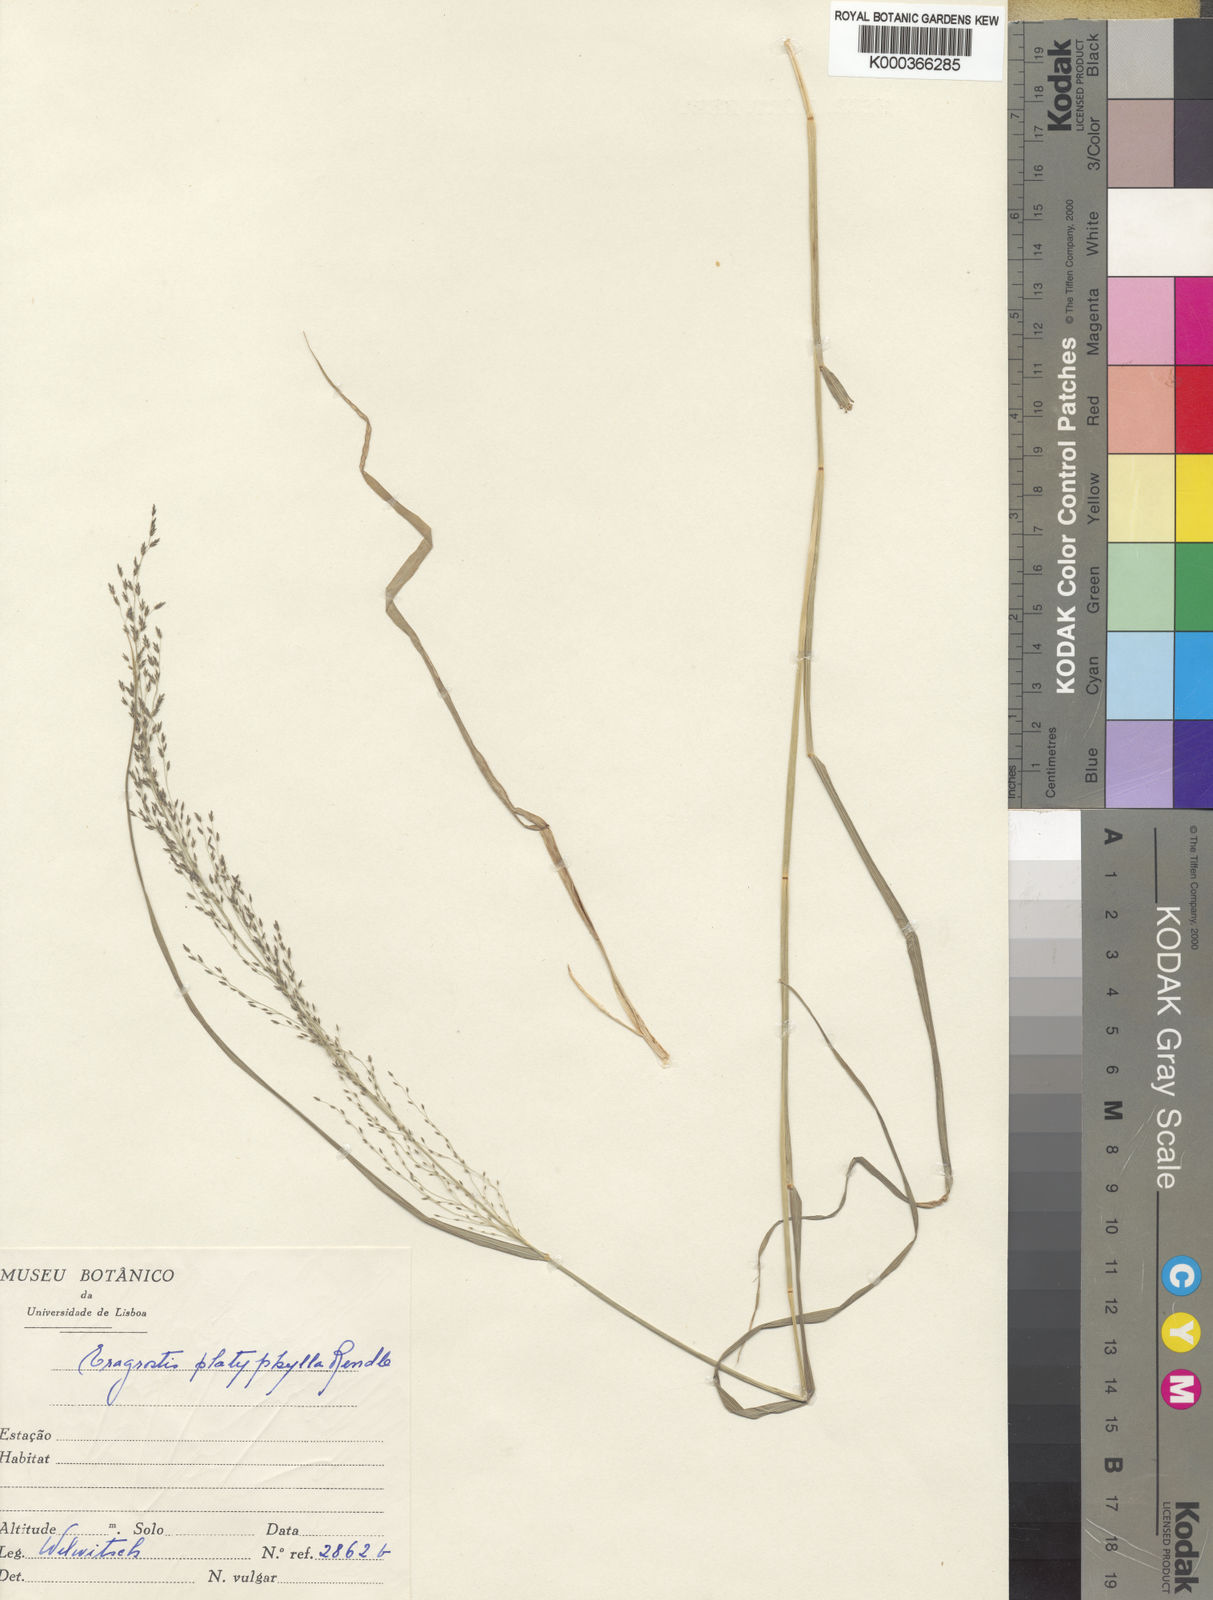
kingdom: Plantae
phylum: Tracheophyta
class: Liliopsida
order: Poales
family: Poaceae
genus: Eragrostis
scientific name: Eragrostis rotifer
